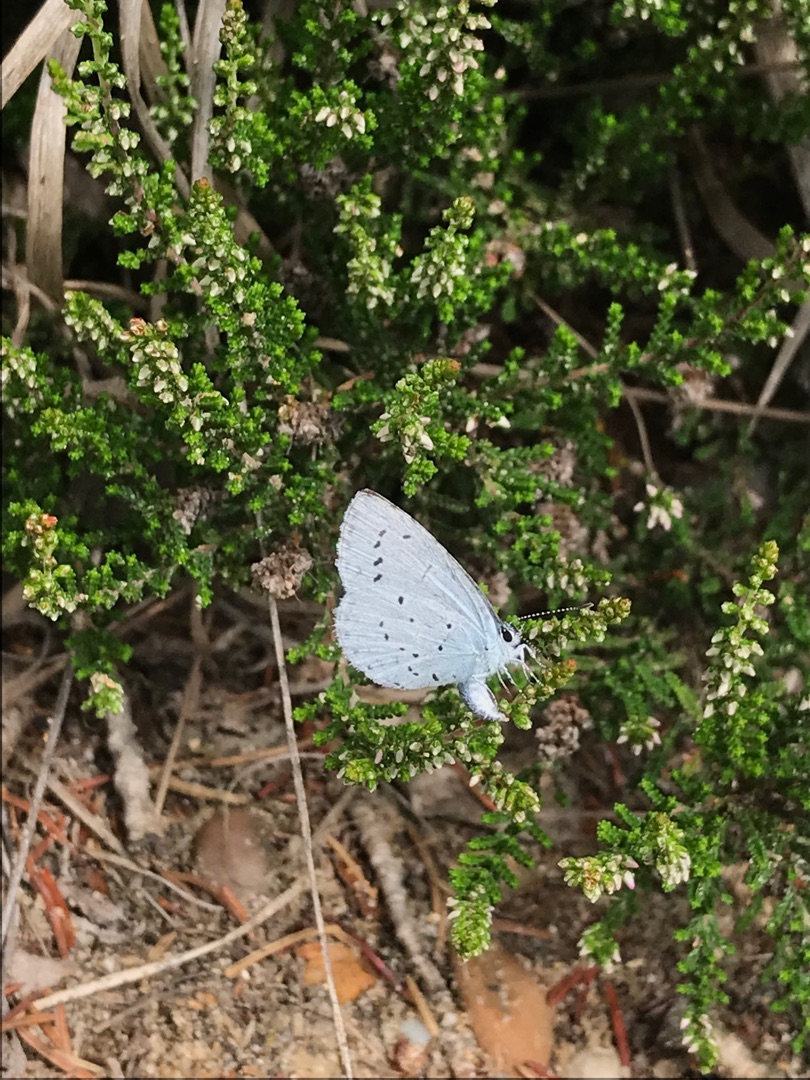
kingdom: Animalia
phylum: Arthropoda
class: Insecta
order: Lepidoptera
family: Lycaenidae
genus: Celastrina
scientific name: Celastrina argiolus
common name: Skovblåfugl
